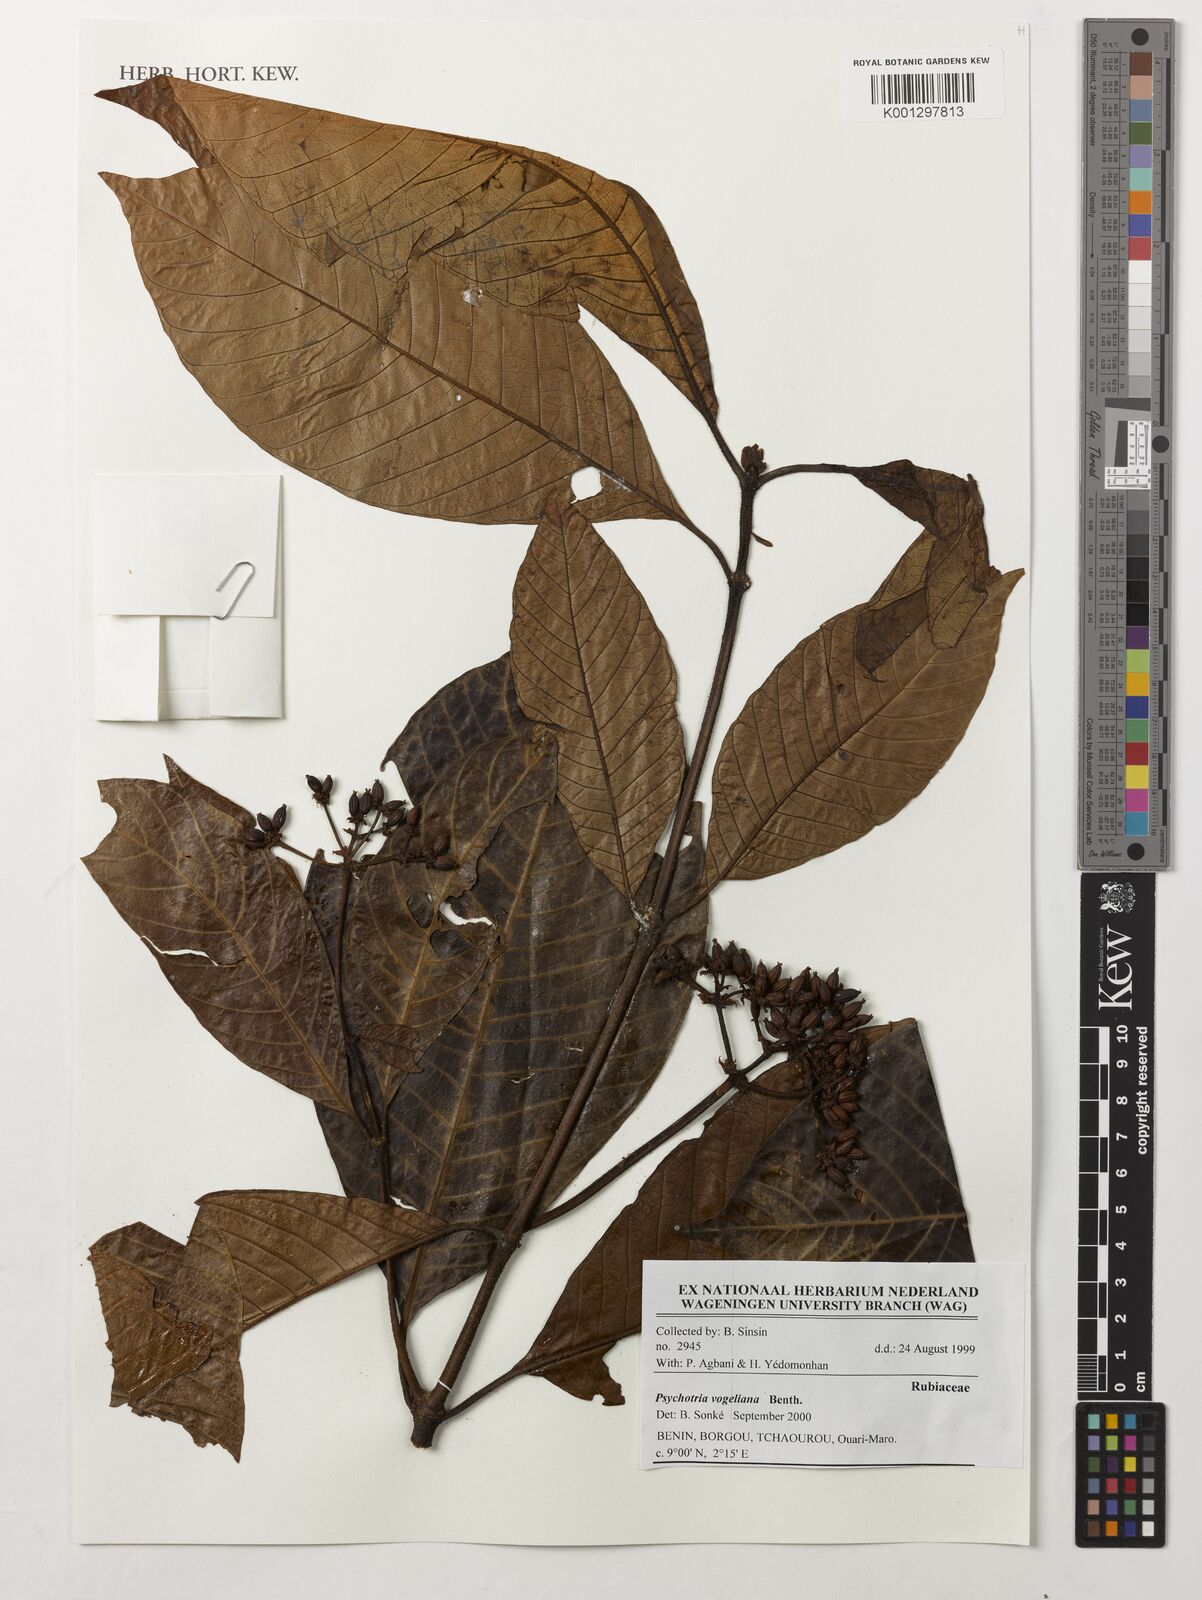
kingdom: Plantae
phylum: Tracheophyta
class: Magnoliopsida
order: Gentianales
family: Rubiaceae
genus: Psychotria
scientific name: Psychotria vogeliana
